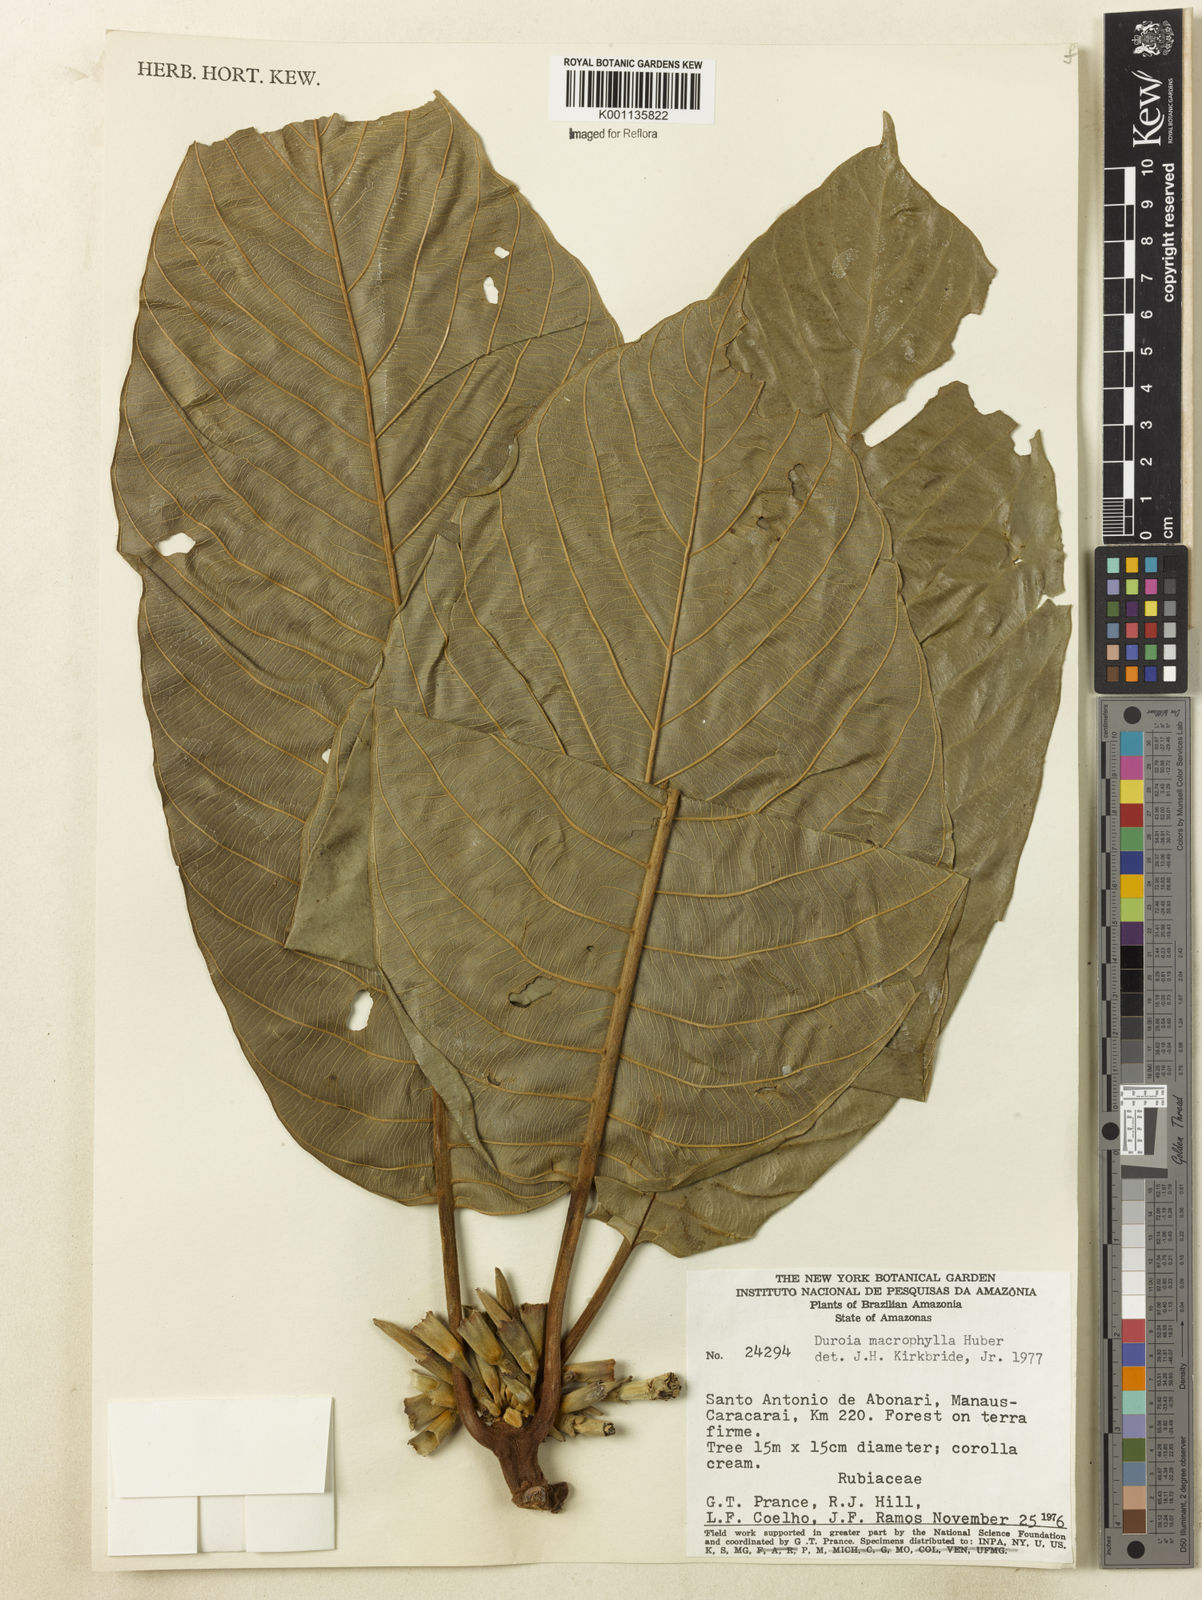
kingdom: Plantae
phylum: Tracheophyta
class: Magnoliopsida
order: Gentianales
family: Rubiaceae
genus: Duroia
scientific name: Duroia macrophylla
